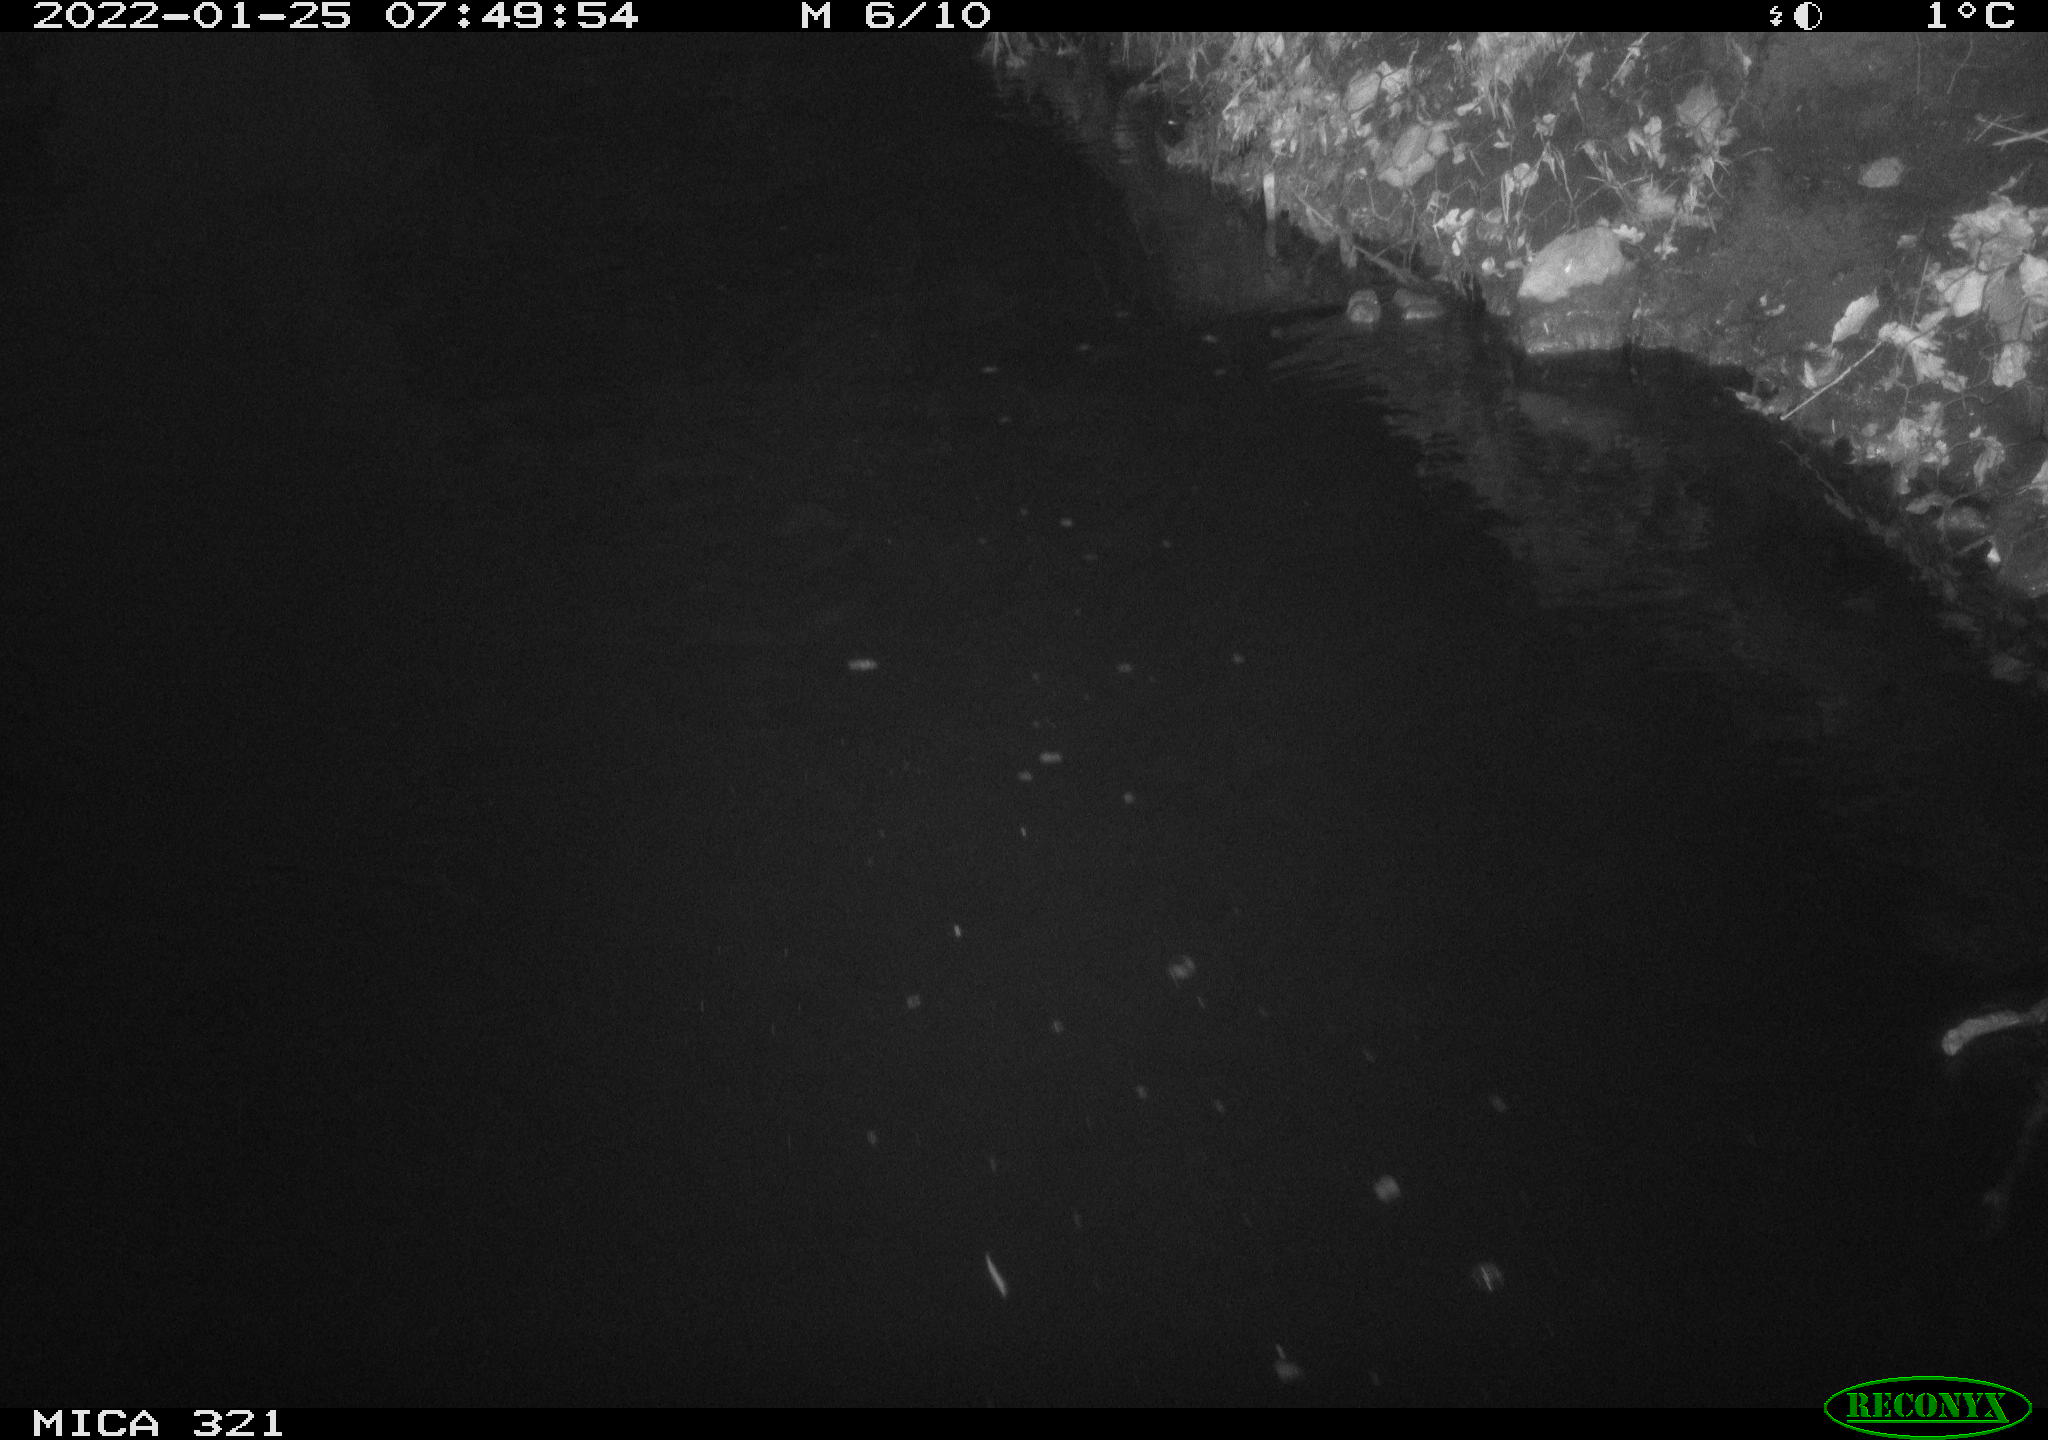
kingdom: Animalia
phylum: Chordata
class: Aves
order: Anseriformes
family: Anatidae
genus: Anas
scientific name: Anas
